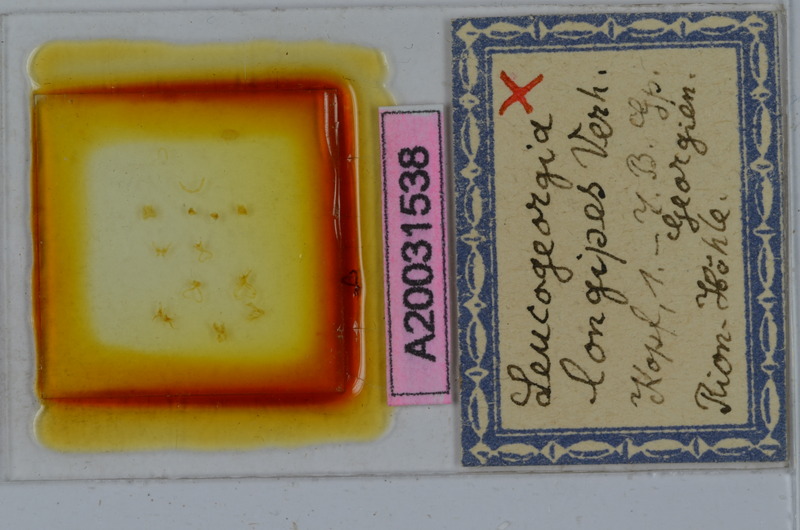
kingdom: Animalia
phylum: Arthropoda
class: Diplopoda
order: Julida
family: Julidae
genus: Leucogeorgia
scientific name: Leucogeorgia longipes
